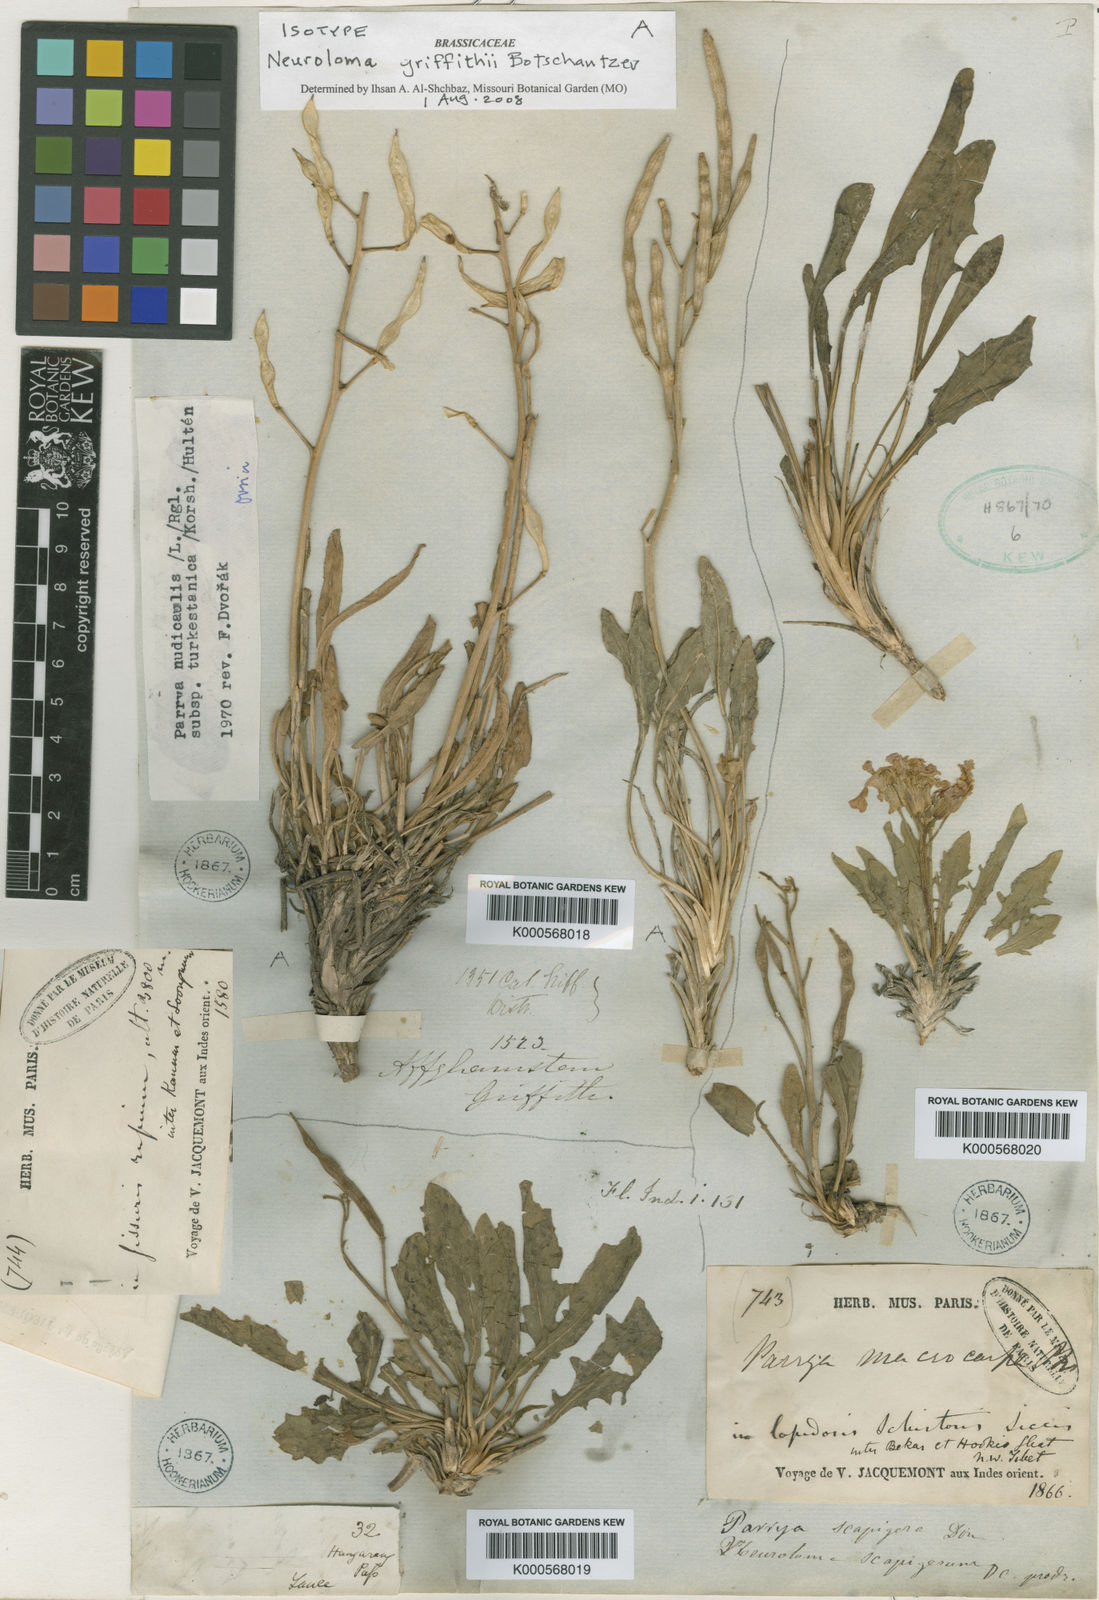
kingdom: Plantae
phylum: Tracheophyta
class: Magnoliopsida
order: Brassicales
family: Brassicaceae
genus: Parrya
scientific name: Parrya nudicaulis
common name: Naked-stemmed false wallflower
